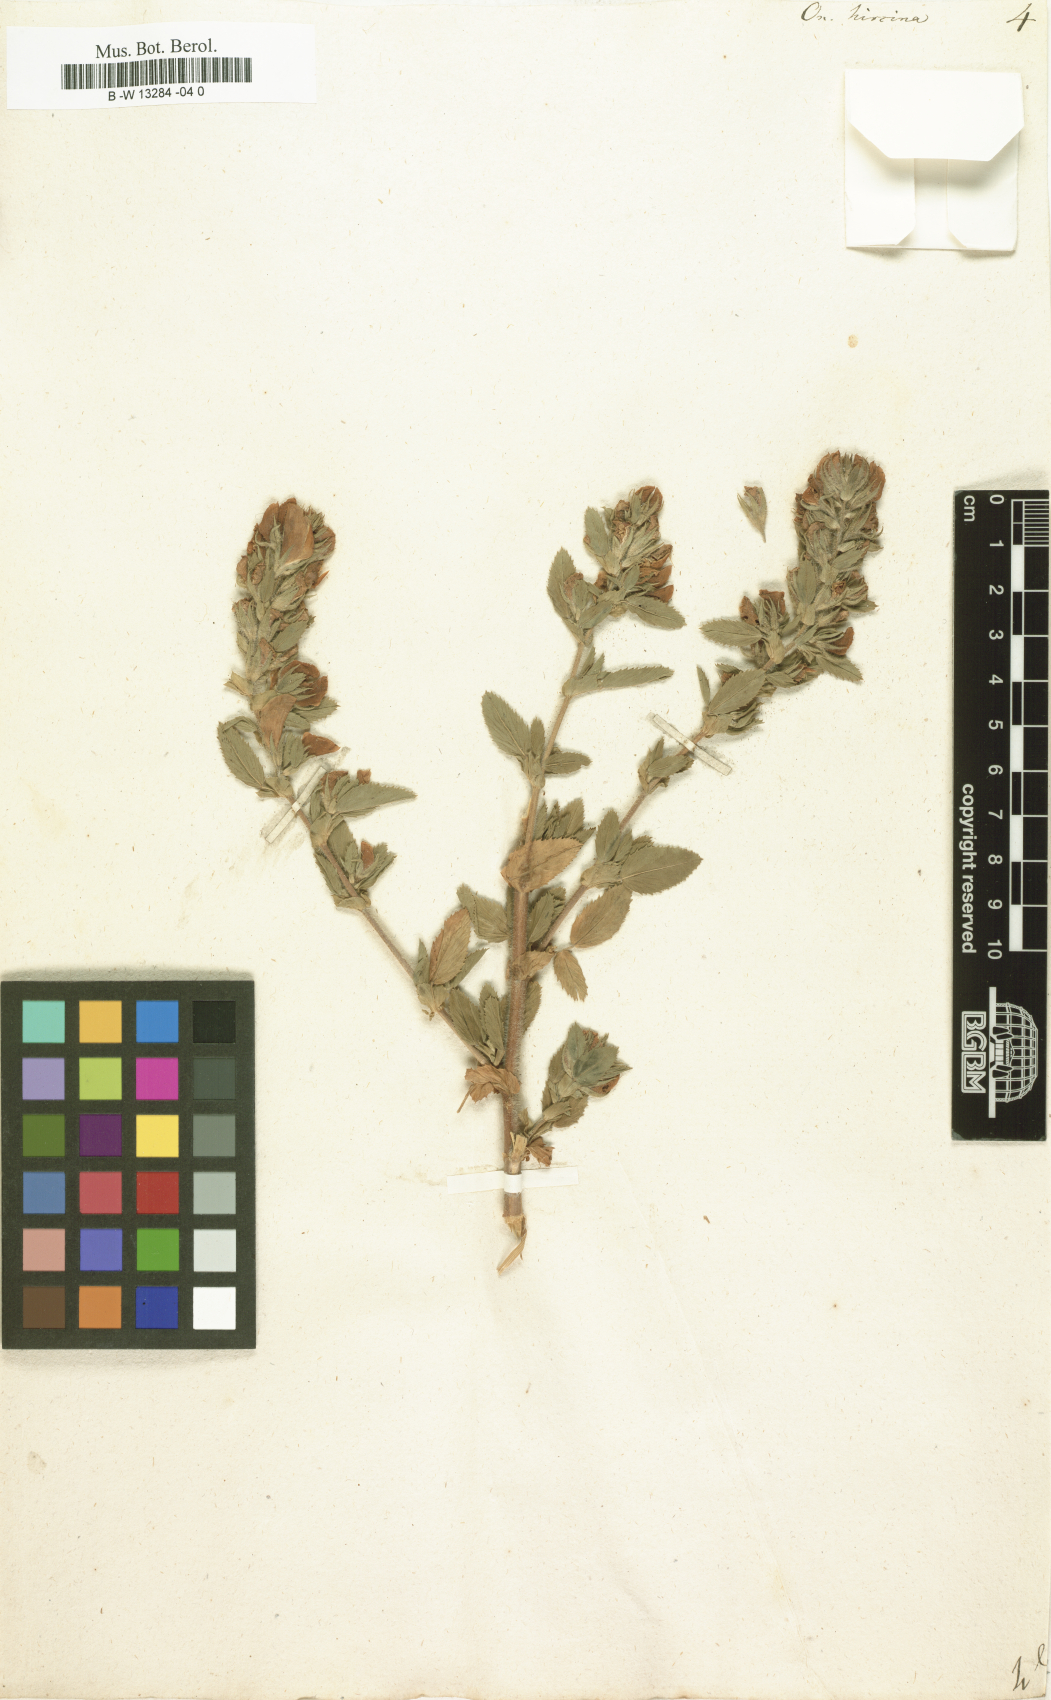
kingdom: Plantae
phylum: Tracheophyta
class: Magnoliopsida
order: Fabales
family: Fabaceae
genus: Ononis
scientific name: Ononis arvensis
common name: Field restharrow
